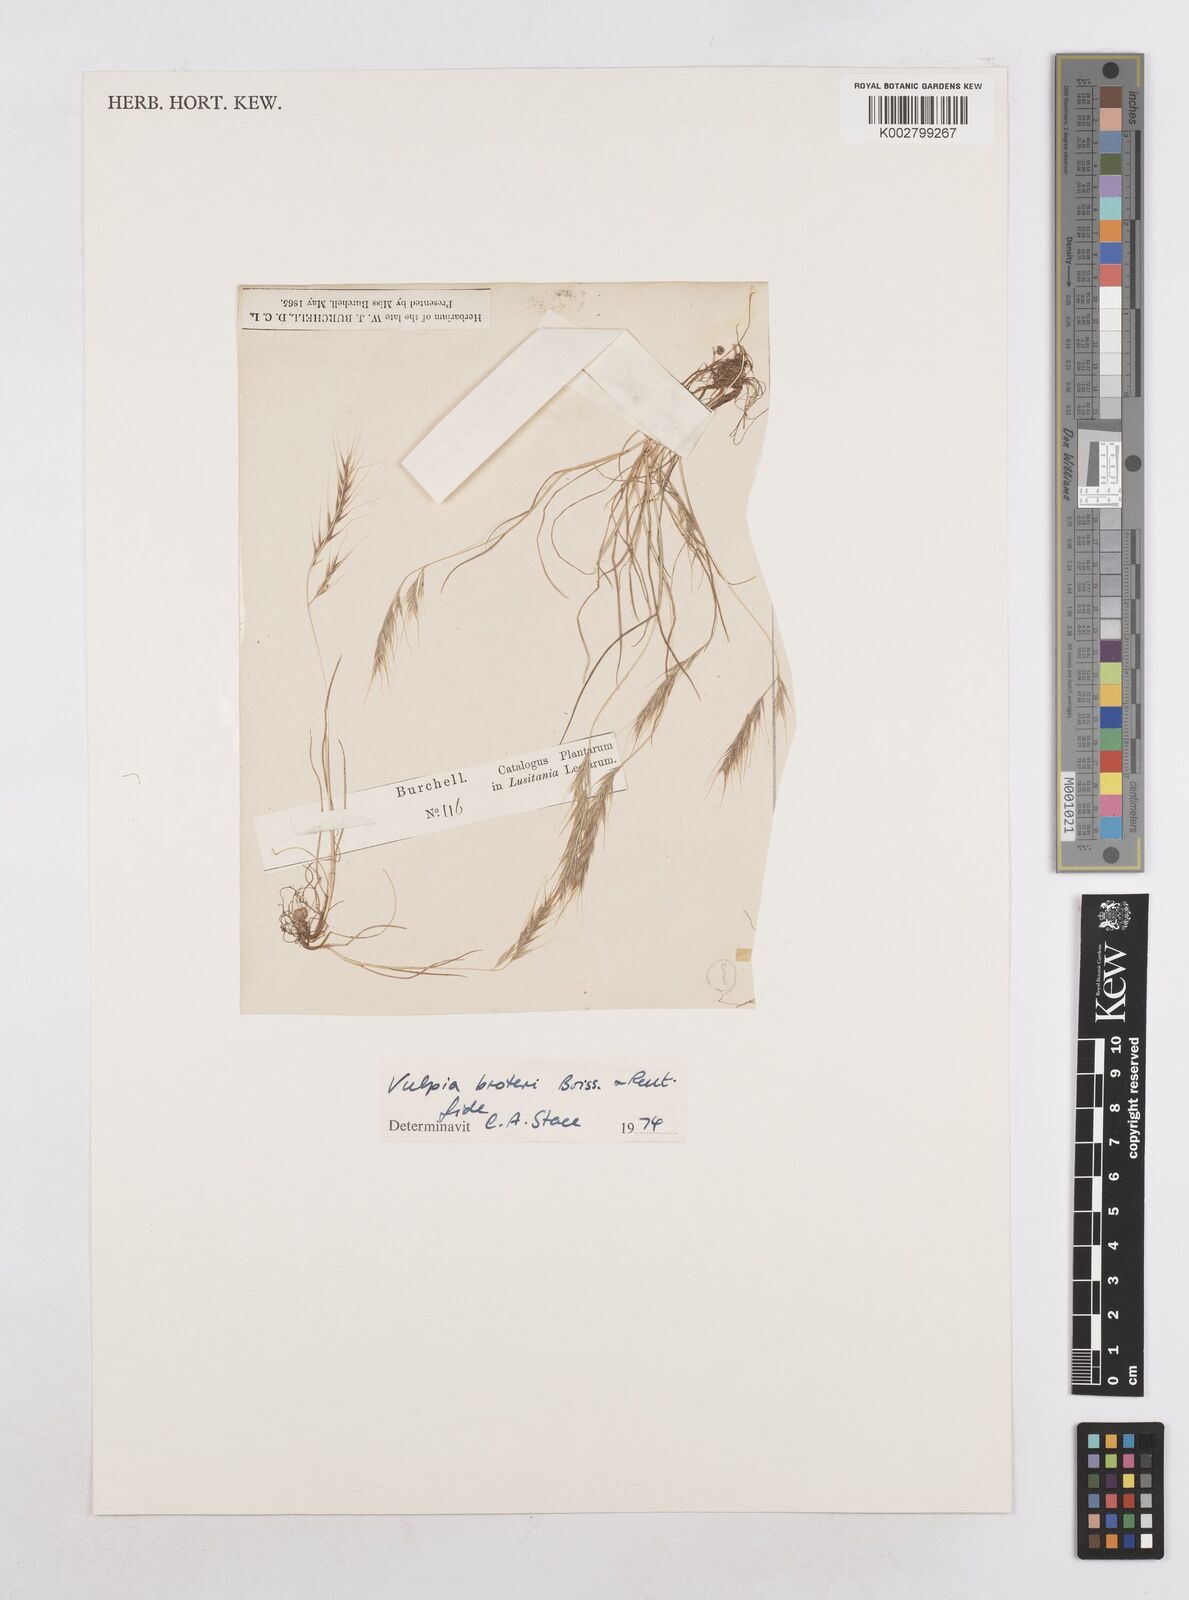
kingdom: Plantae
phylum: Tracheophyta
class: Liliopsida
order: Poales
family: Poaceae
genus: Festuca
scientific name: Festuca muralis
